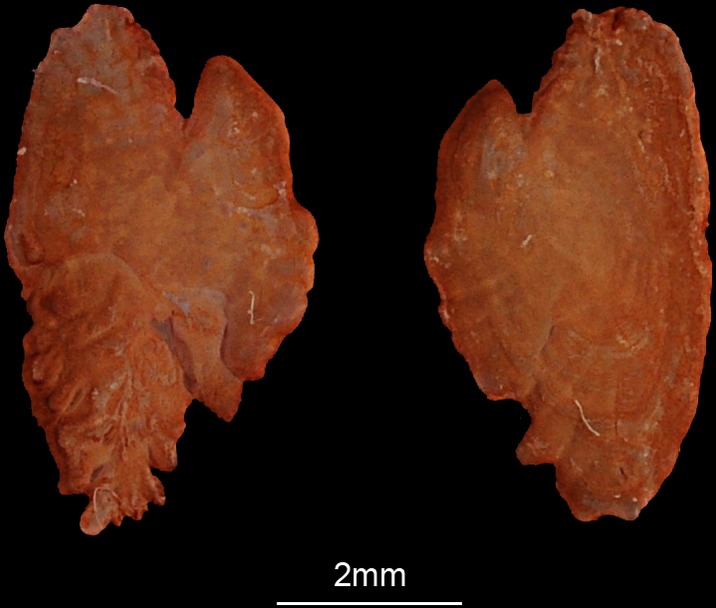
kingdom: Animalia
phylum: Chordata
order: Perciformes
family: Labridae
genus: Choerodon
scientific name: Choerodon robustus
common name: Robust tuskfish
